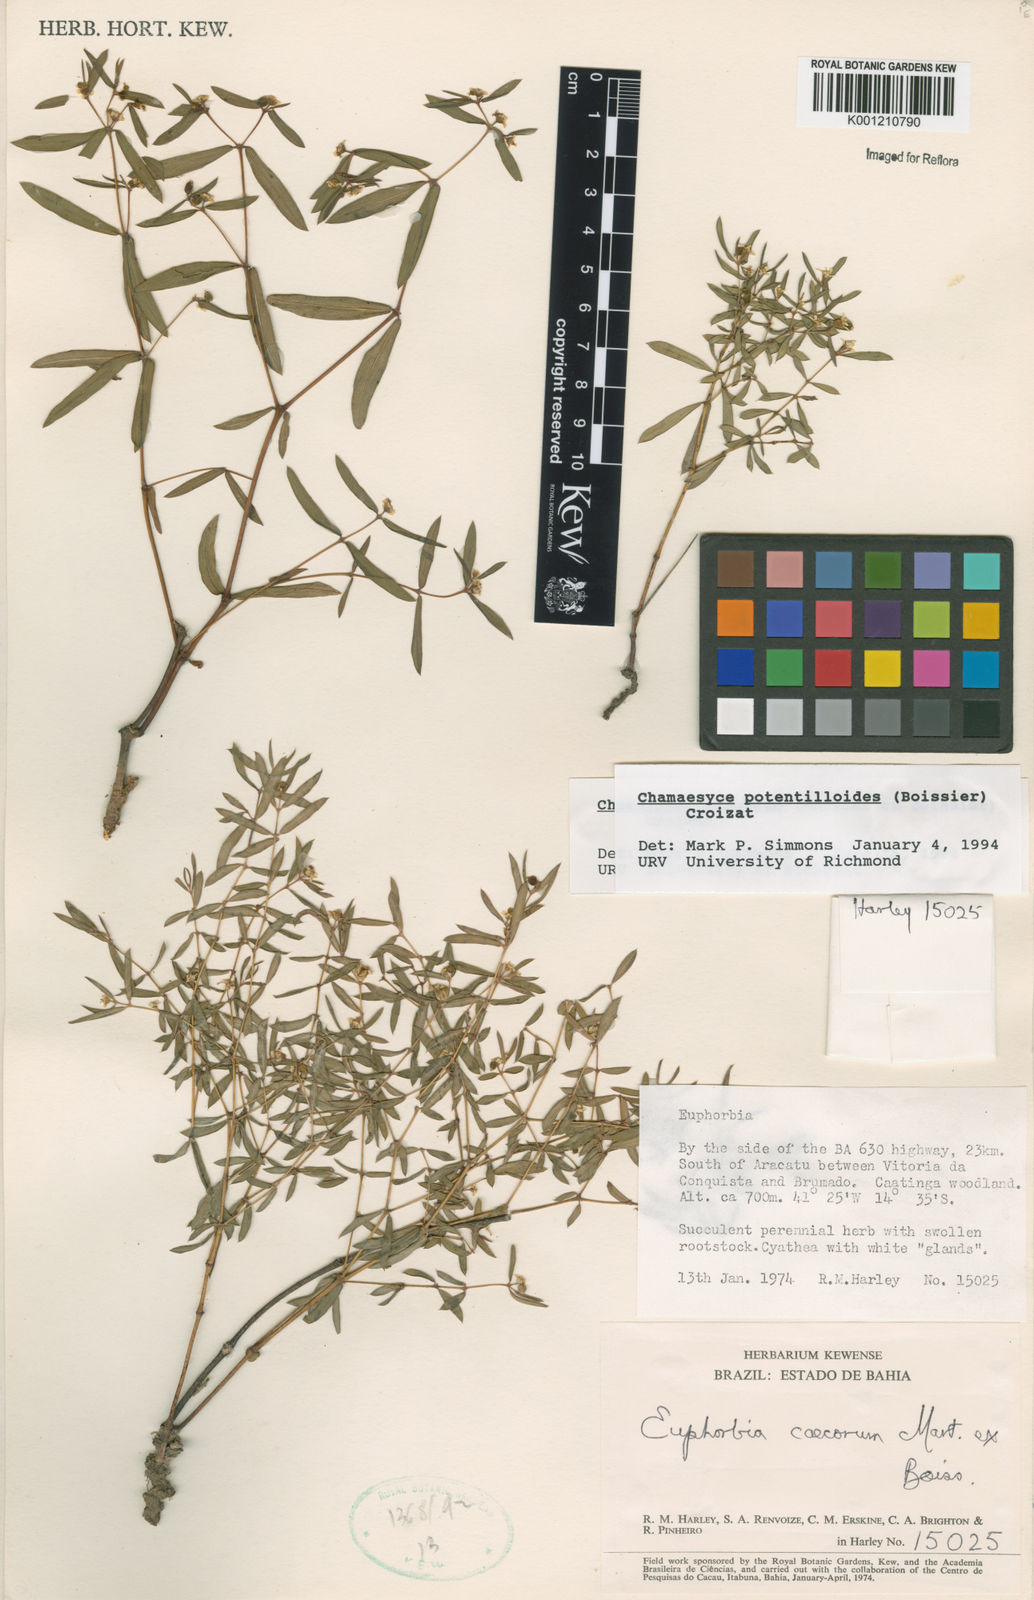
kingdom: Plantae
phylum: Tracheophyta
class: Magnoliopsida
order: Malpighiales
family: Euphorbiaceae
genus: Euphorbia
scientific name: Euphorbia potentilloides
